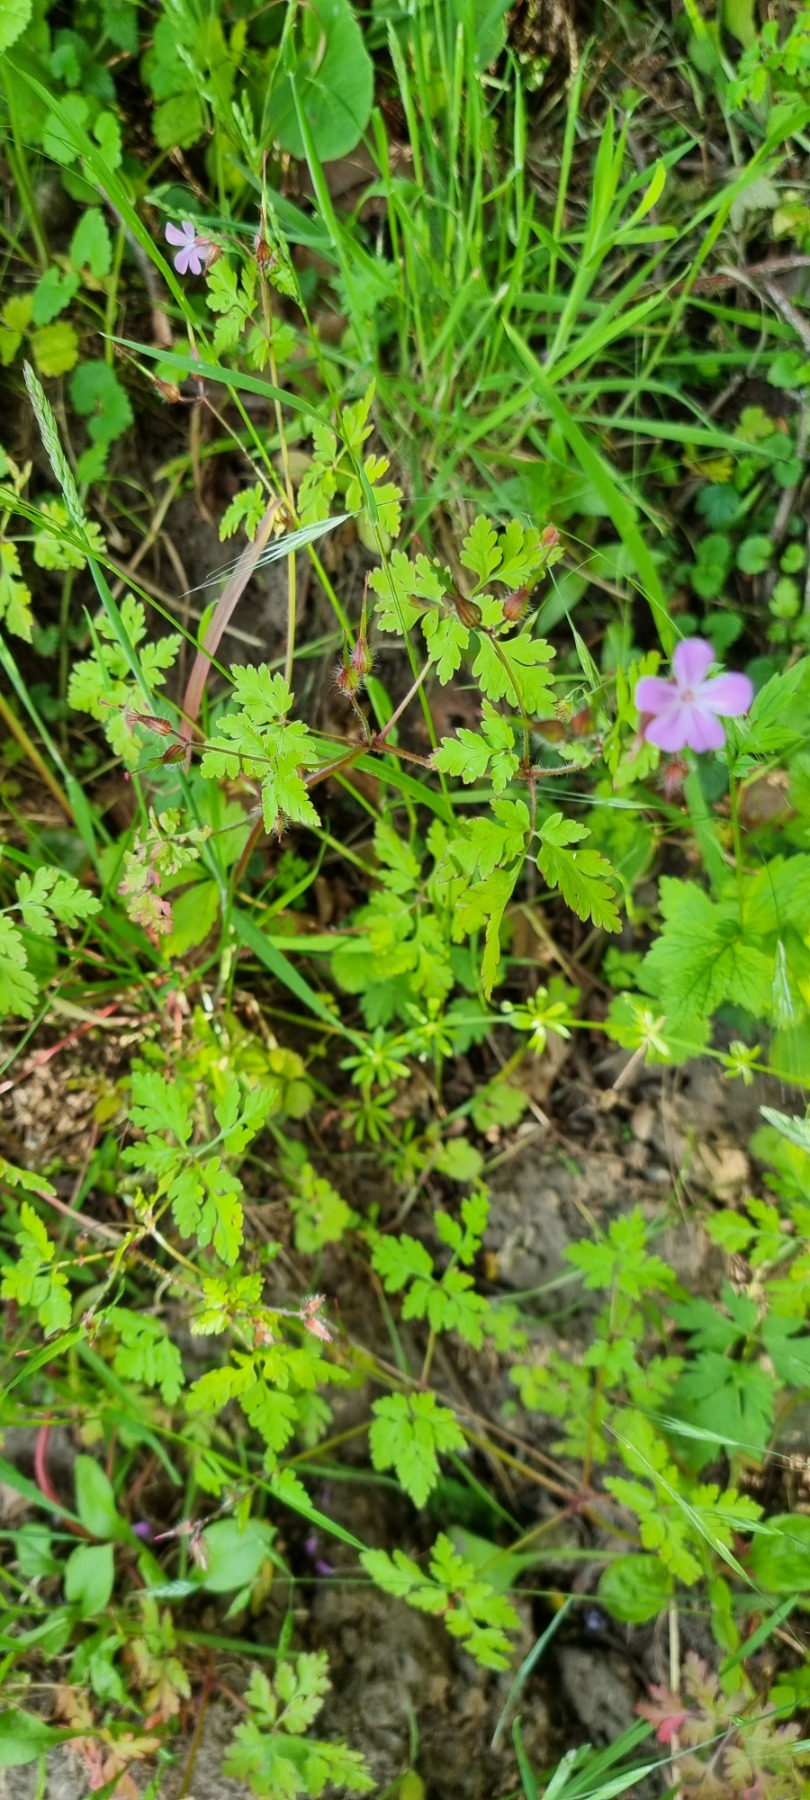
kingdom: Plantae
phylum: Tracheophyta
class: Magnoliopsida
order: Geraniales
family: Geraniaceae
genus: Geranium
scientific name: Geranium robertianum
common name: Stinkende storkenæb
